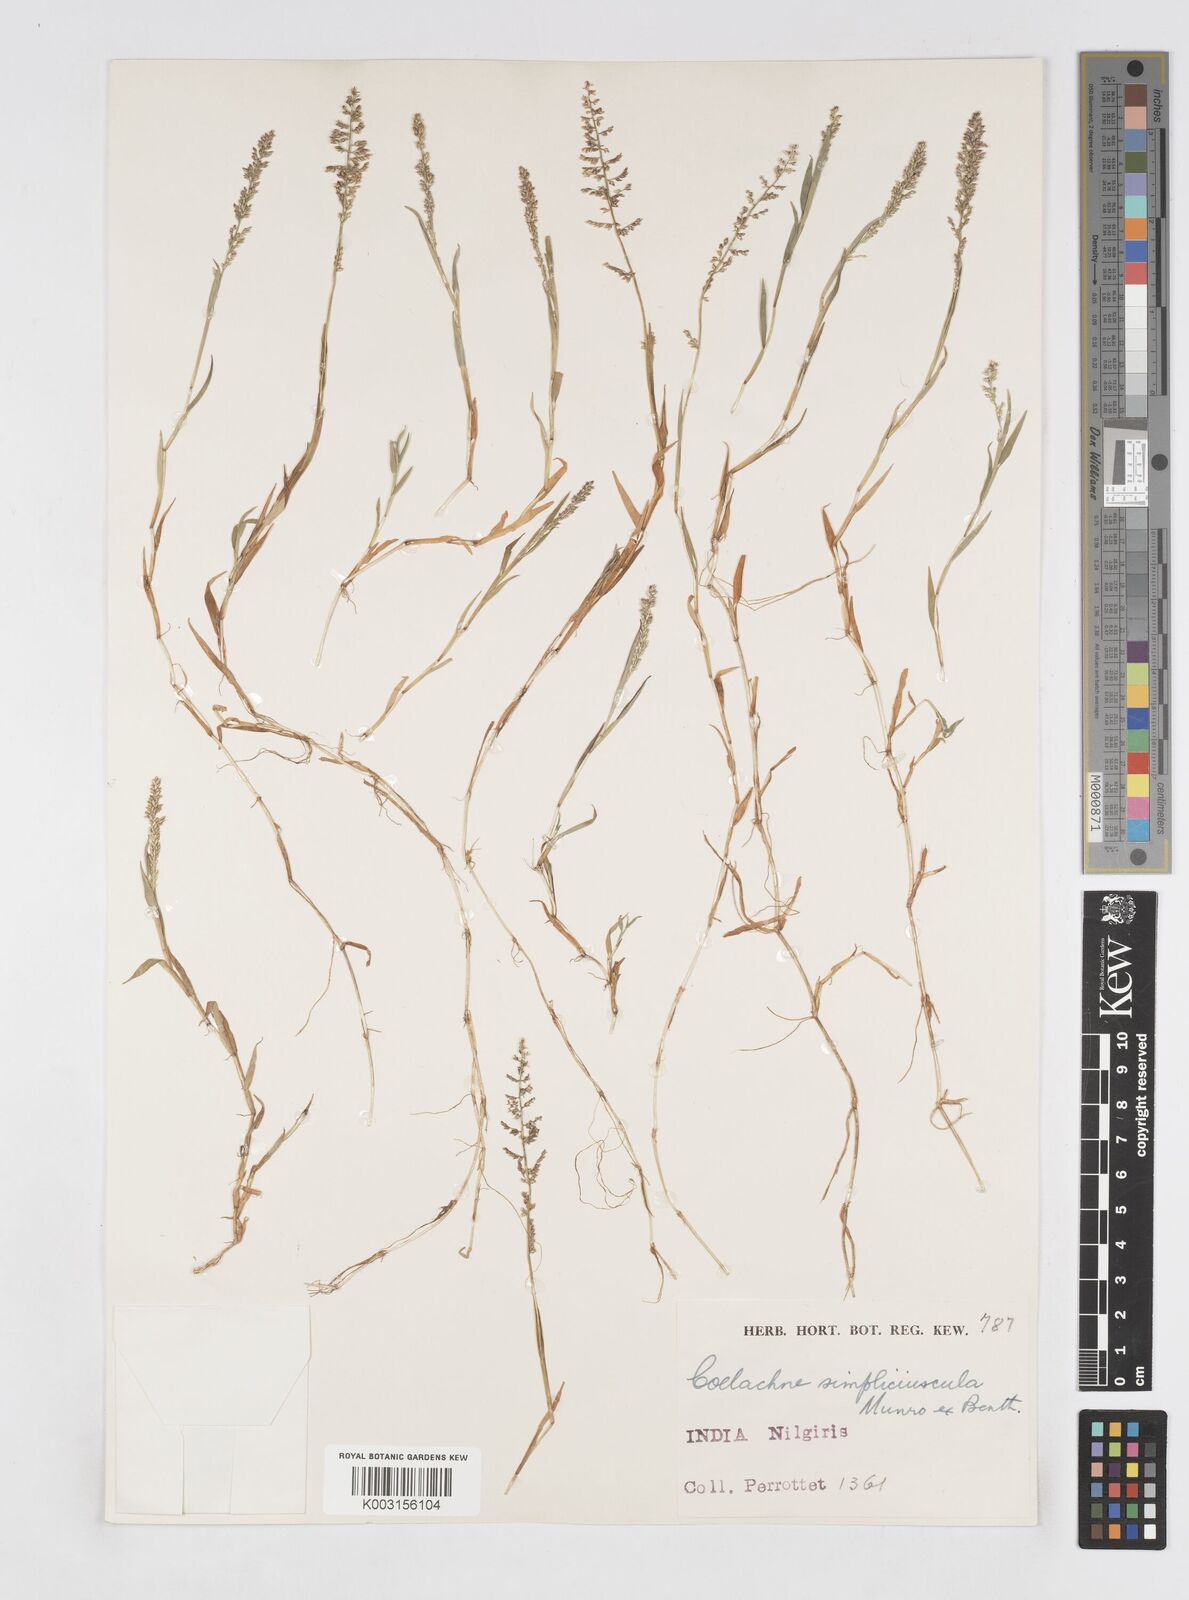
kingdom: Plantae
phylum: Tracheophyta
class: Liliopsida
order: Poales
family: Poaceae
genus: Coelachne
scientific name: Coelachne simpliciuscula
